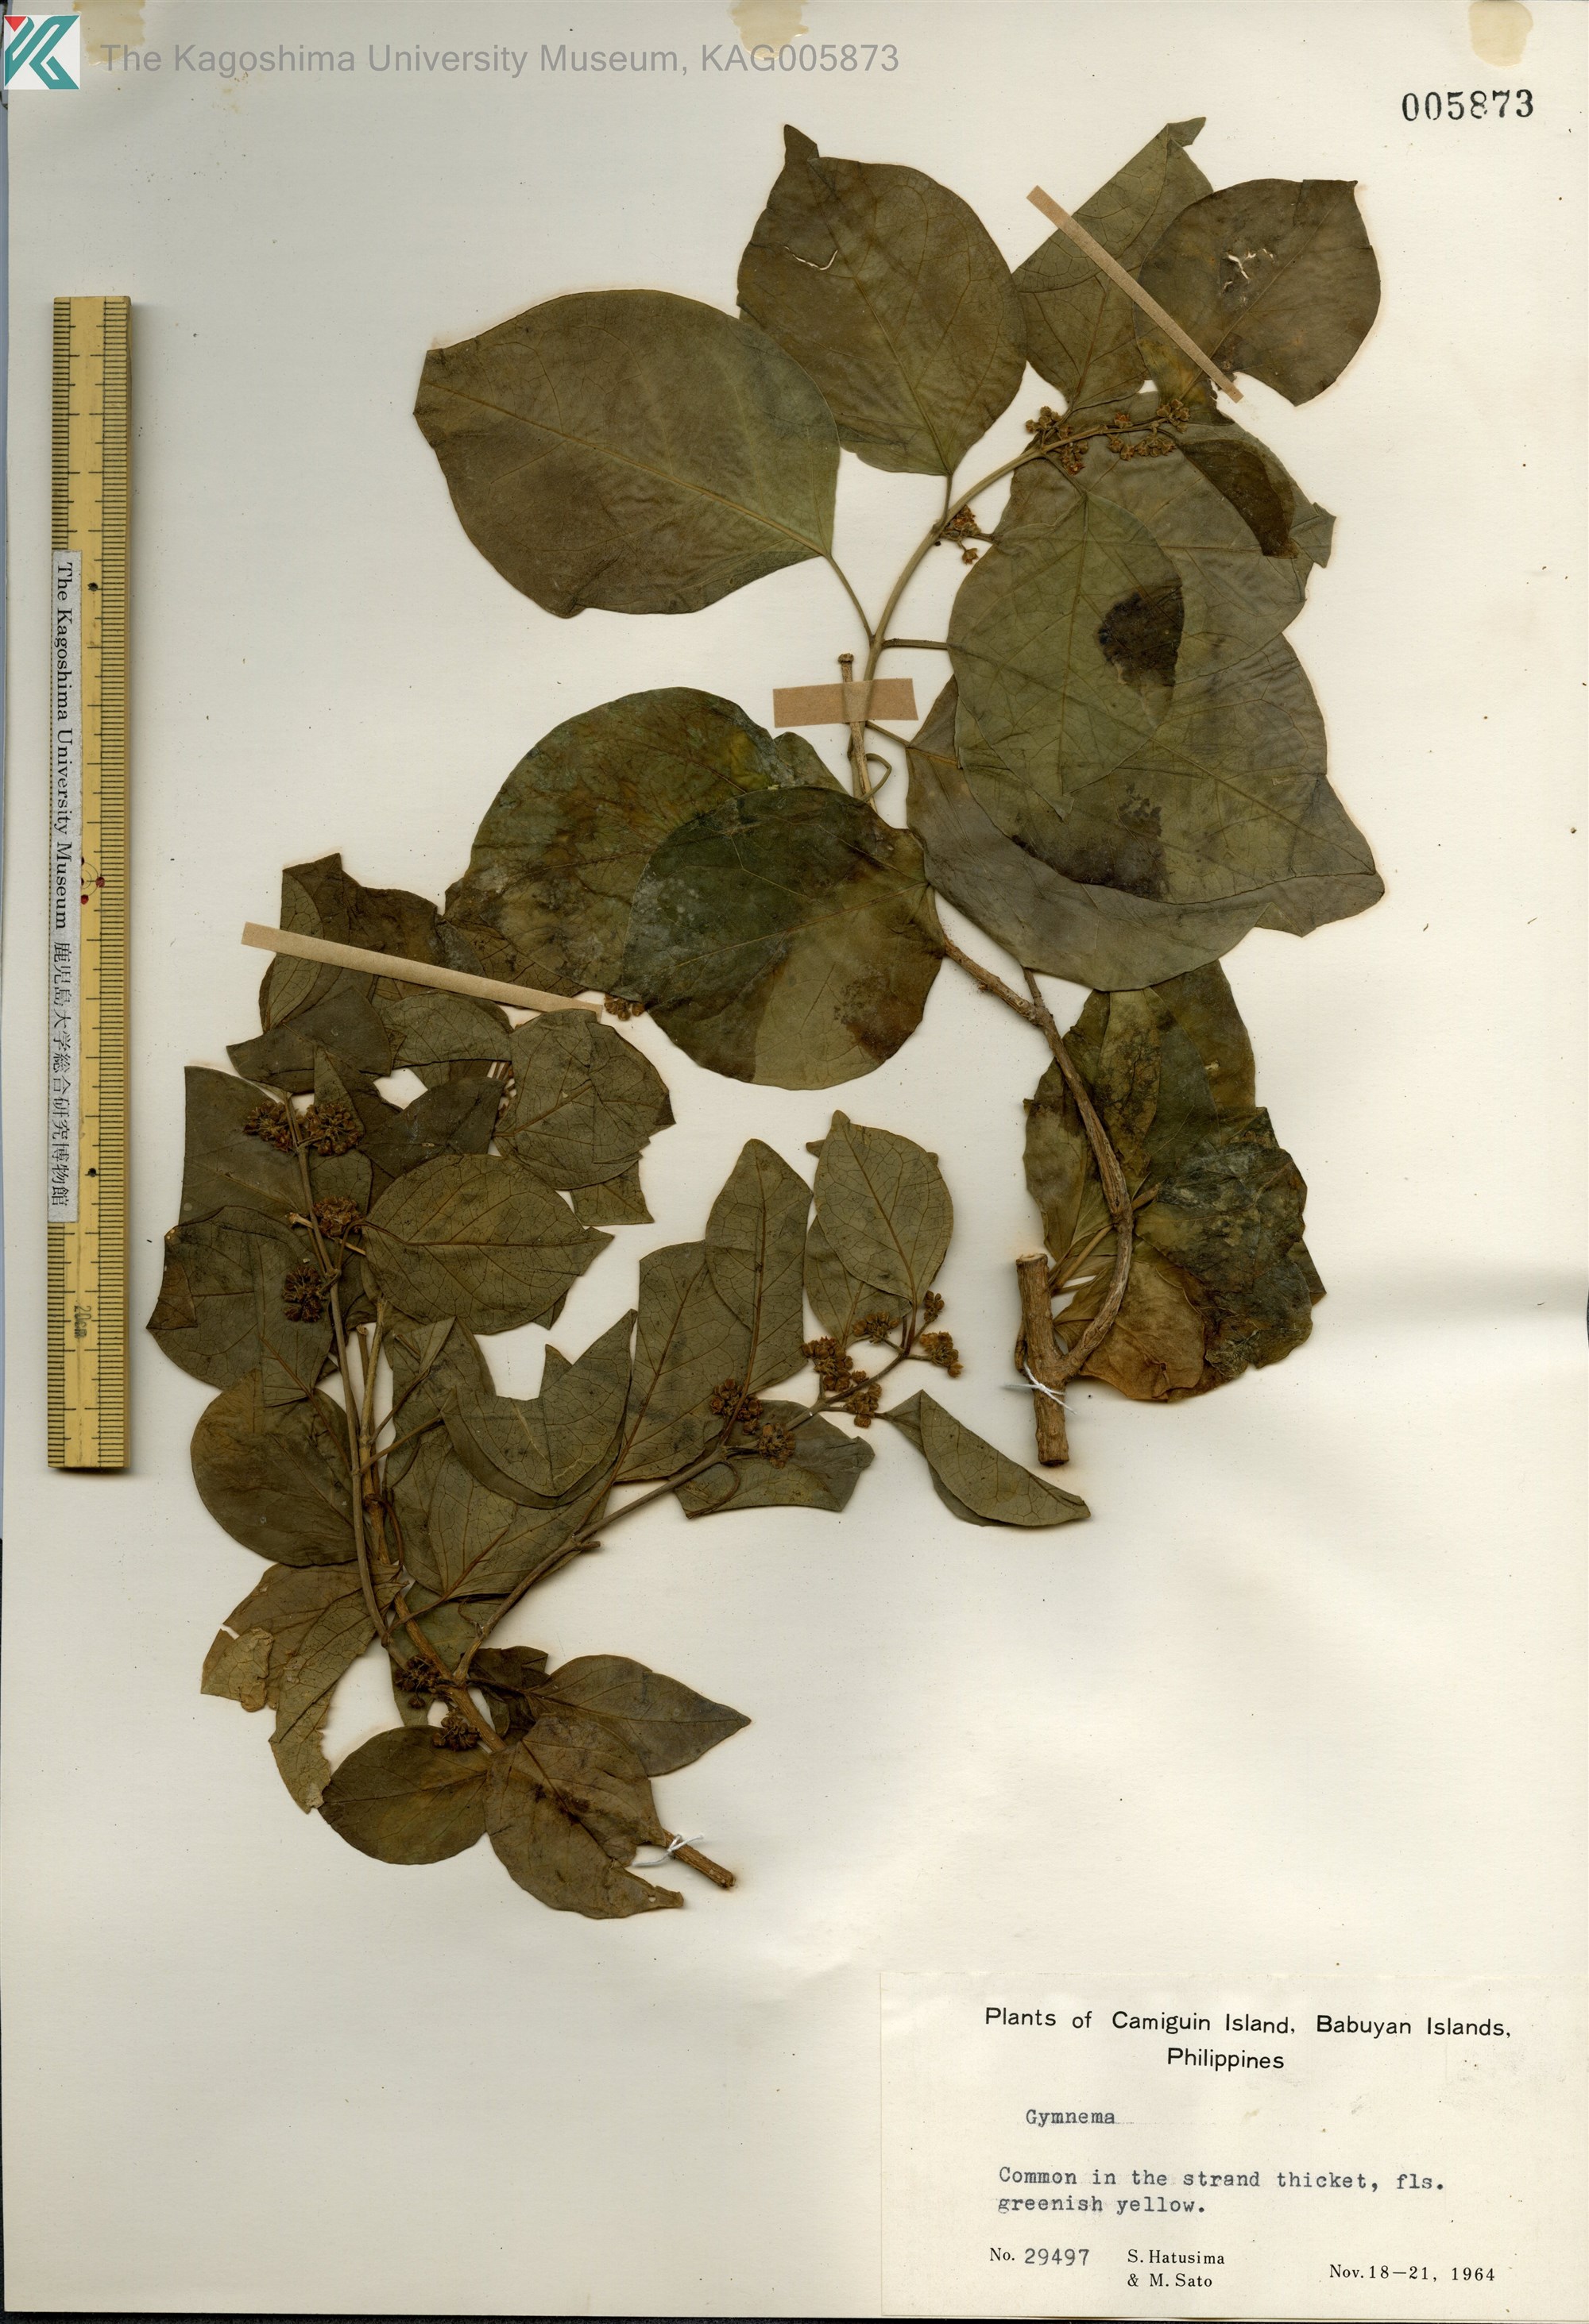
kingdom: Plantae
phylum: Tracheophyta
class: Magnoliopsida
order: Gentianales
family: Apocynaceae
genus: Gymnema
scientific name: Gymnema
